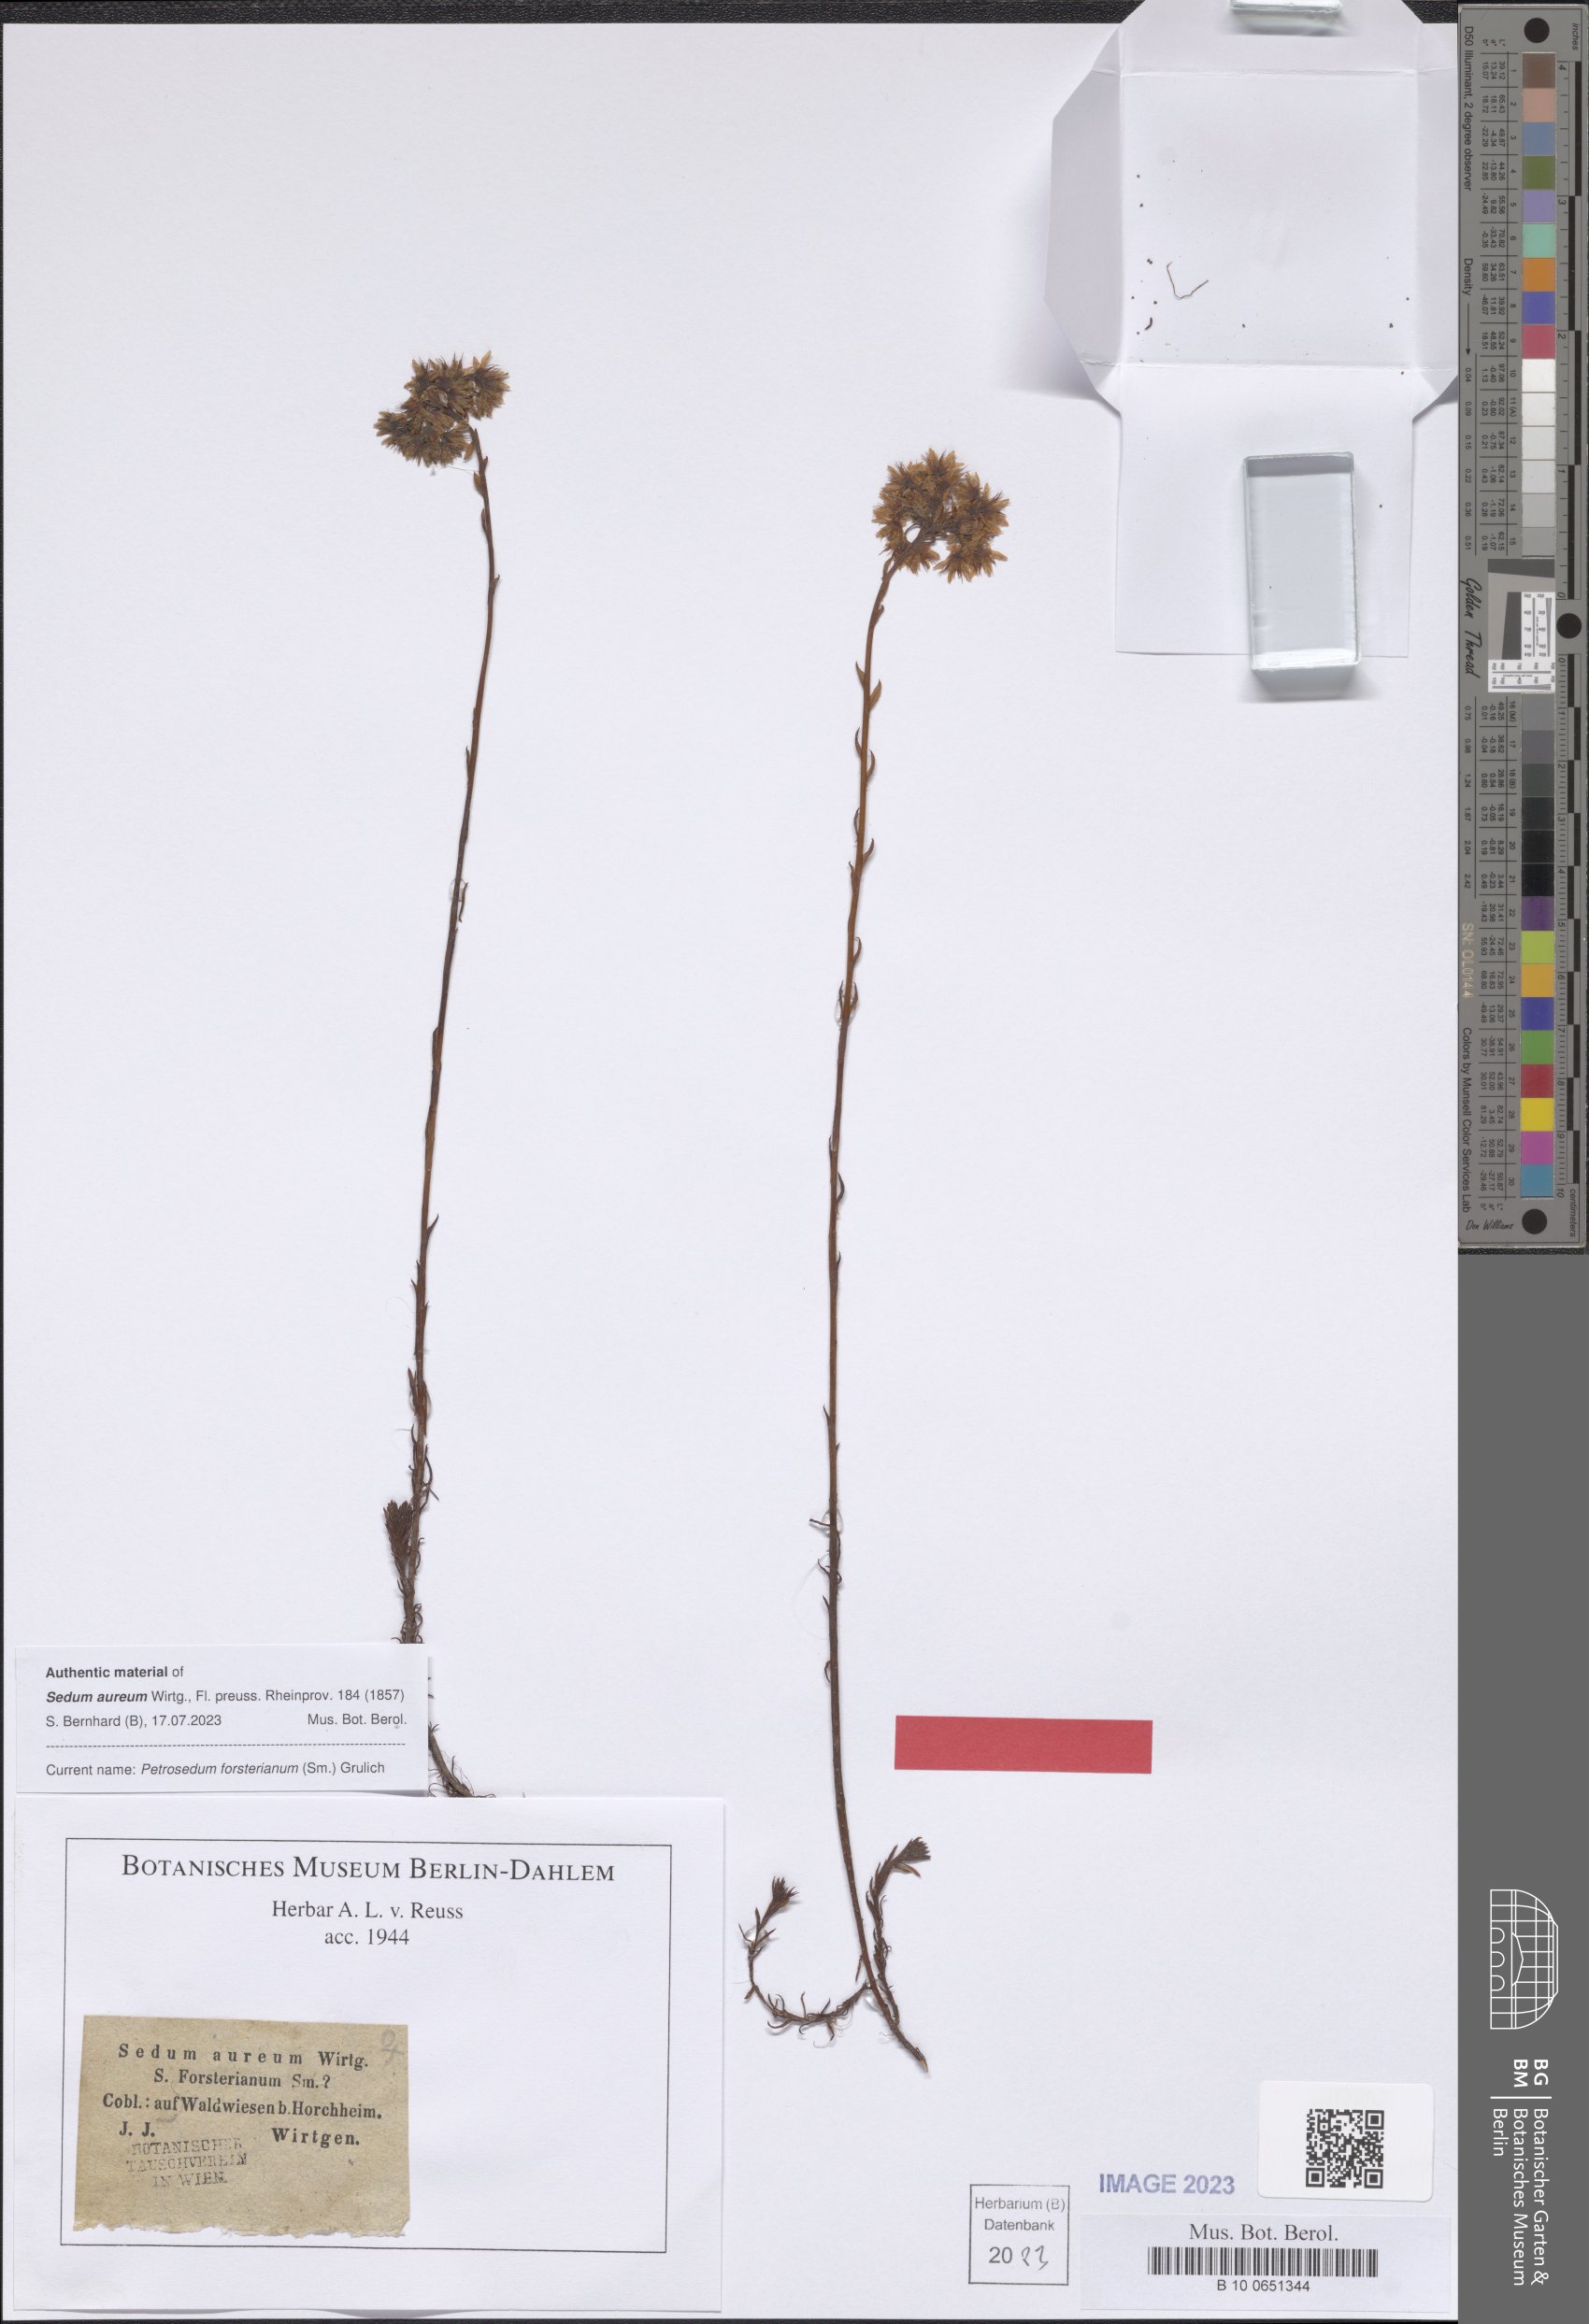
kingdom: Plantae
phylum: Tracheophyta
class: Magnoliopsida
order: Saxifragales
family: Crassulaceae
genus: Petrosedum
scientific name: Petrosedum forsterianum
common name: Forster's stonecrop
